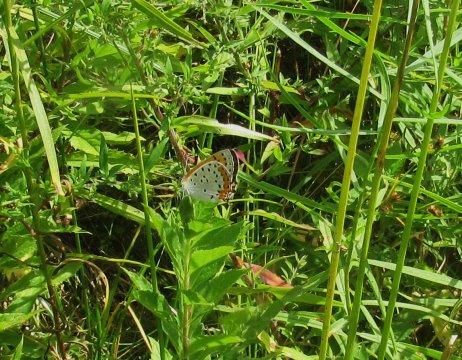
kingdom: Animalia
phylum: Arthropoda
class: Insecta
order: Lepidoptera
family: Sesiidae
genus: Sesia
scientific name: Sesia Lycaena hyllus
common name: Bronze Copper
